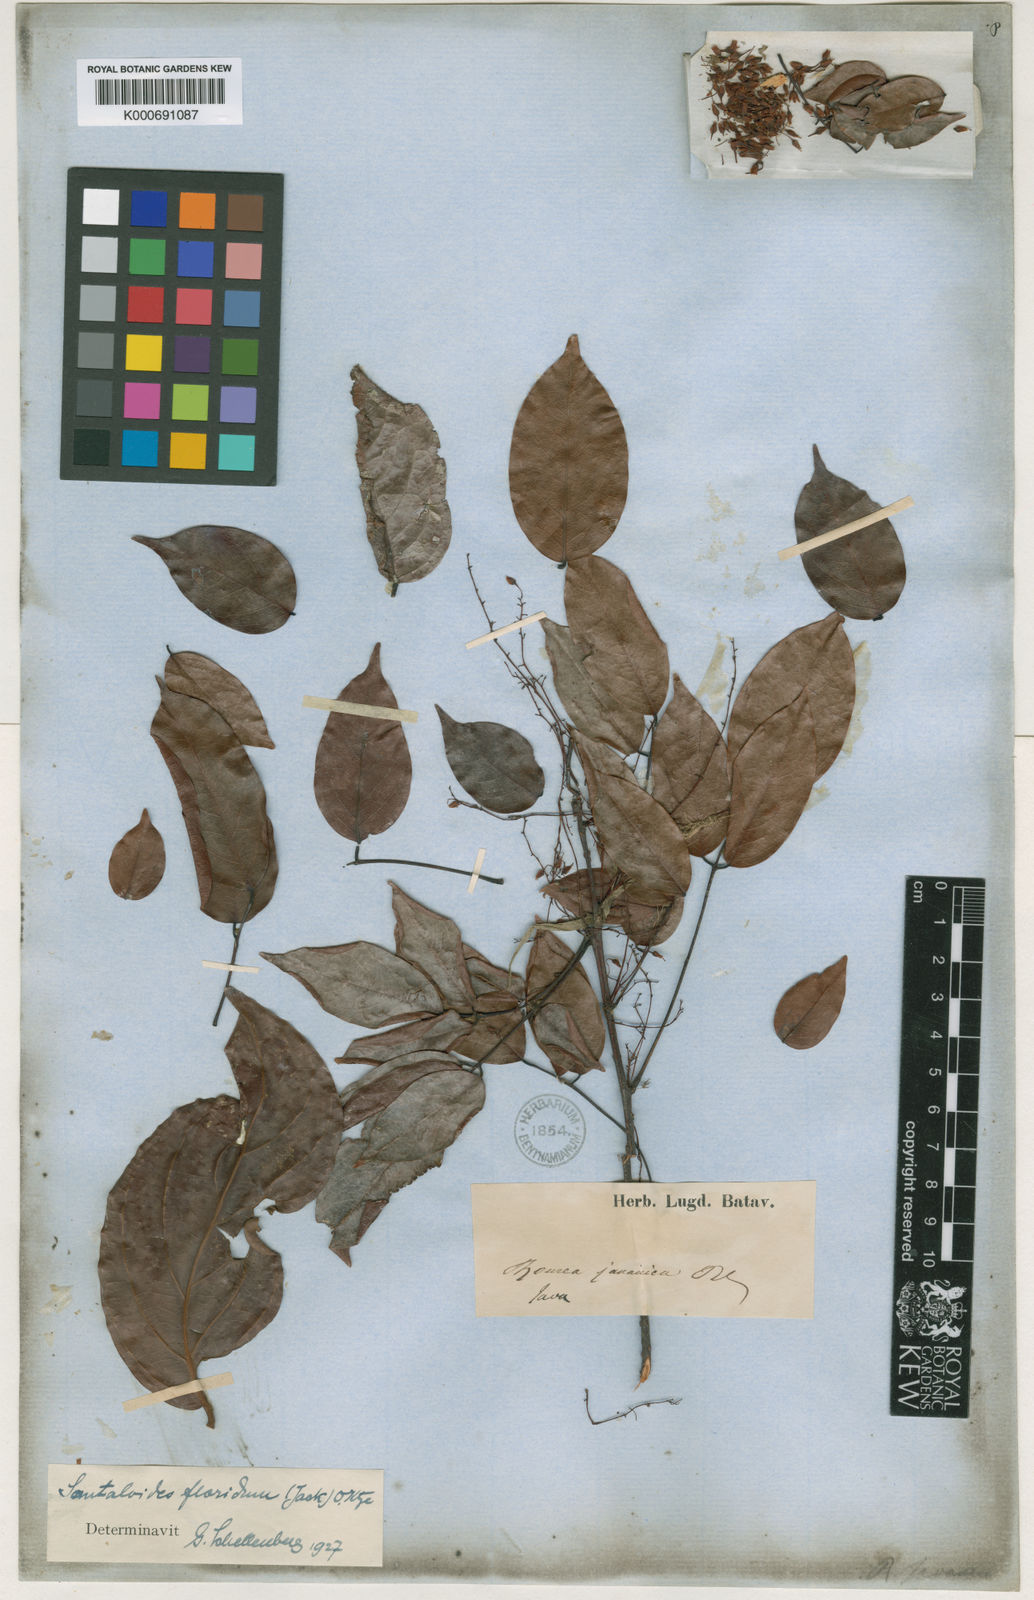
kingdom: Plantae
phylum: Tracheophyta
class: Magnoliopsida
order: Oxalidales
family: Connaraceae
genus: Rourea
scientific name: Rourea
